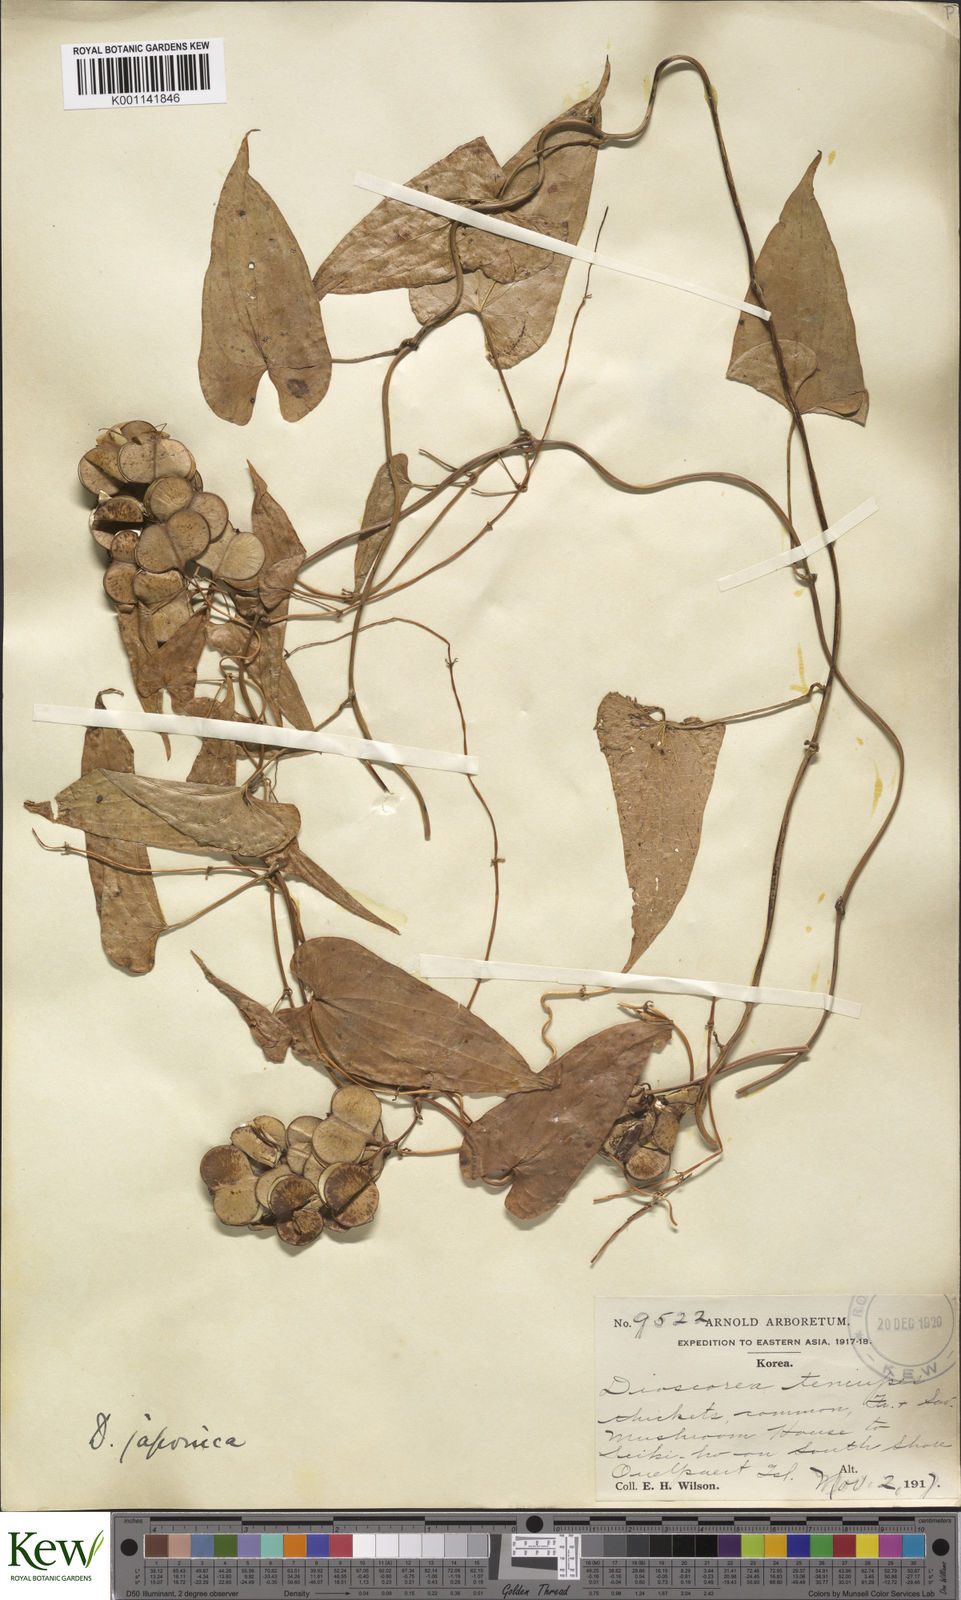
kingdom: Plantae
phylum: Tracheophyta
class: Liliopsida
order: Dioscoreales
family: Dioscoreaceae
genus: Dioscorea
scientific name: Dioscorea japonica
